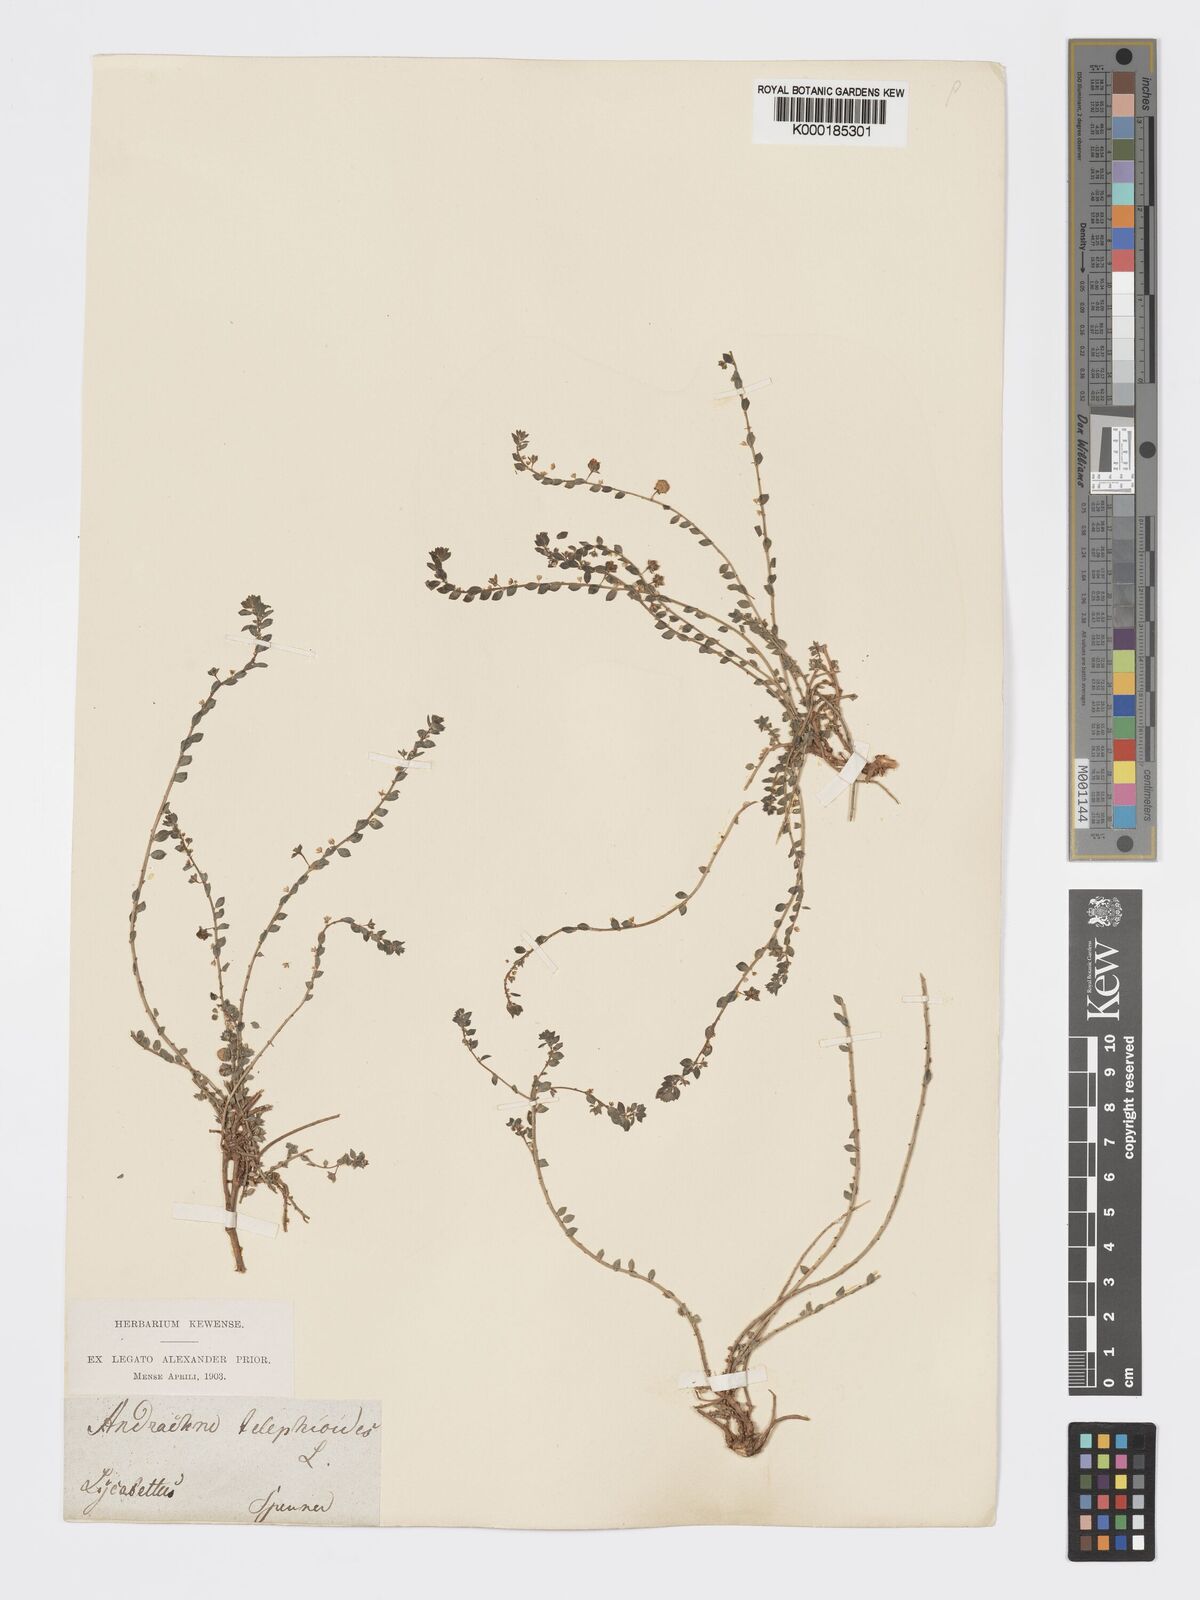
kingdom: Plantae
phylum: Tracheophyta
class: Magnoliopsida
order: Malpighiales
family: Phyllanthaceae
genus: Andrachne
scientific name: Andrachne telephioides
